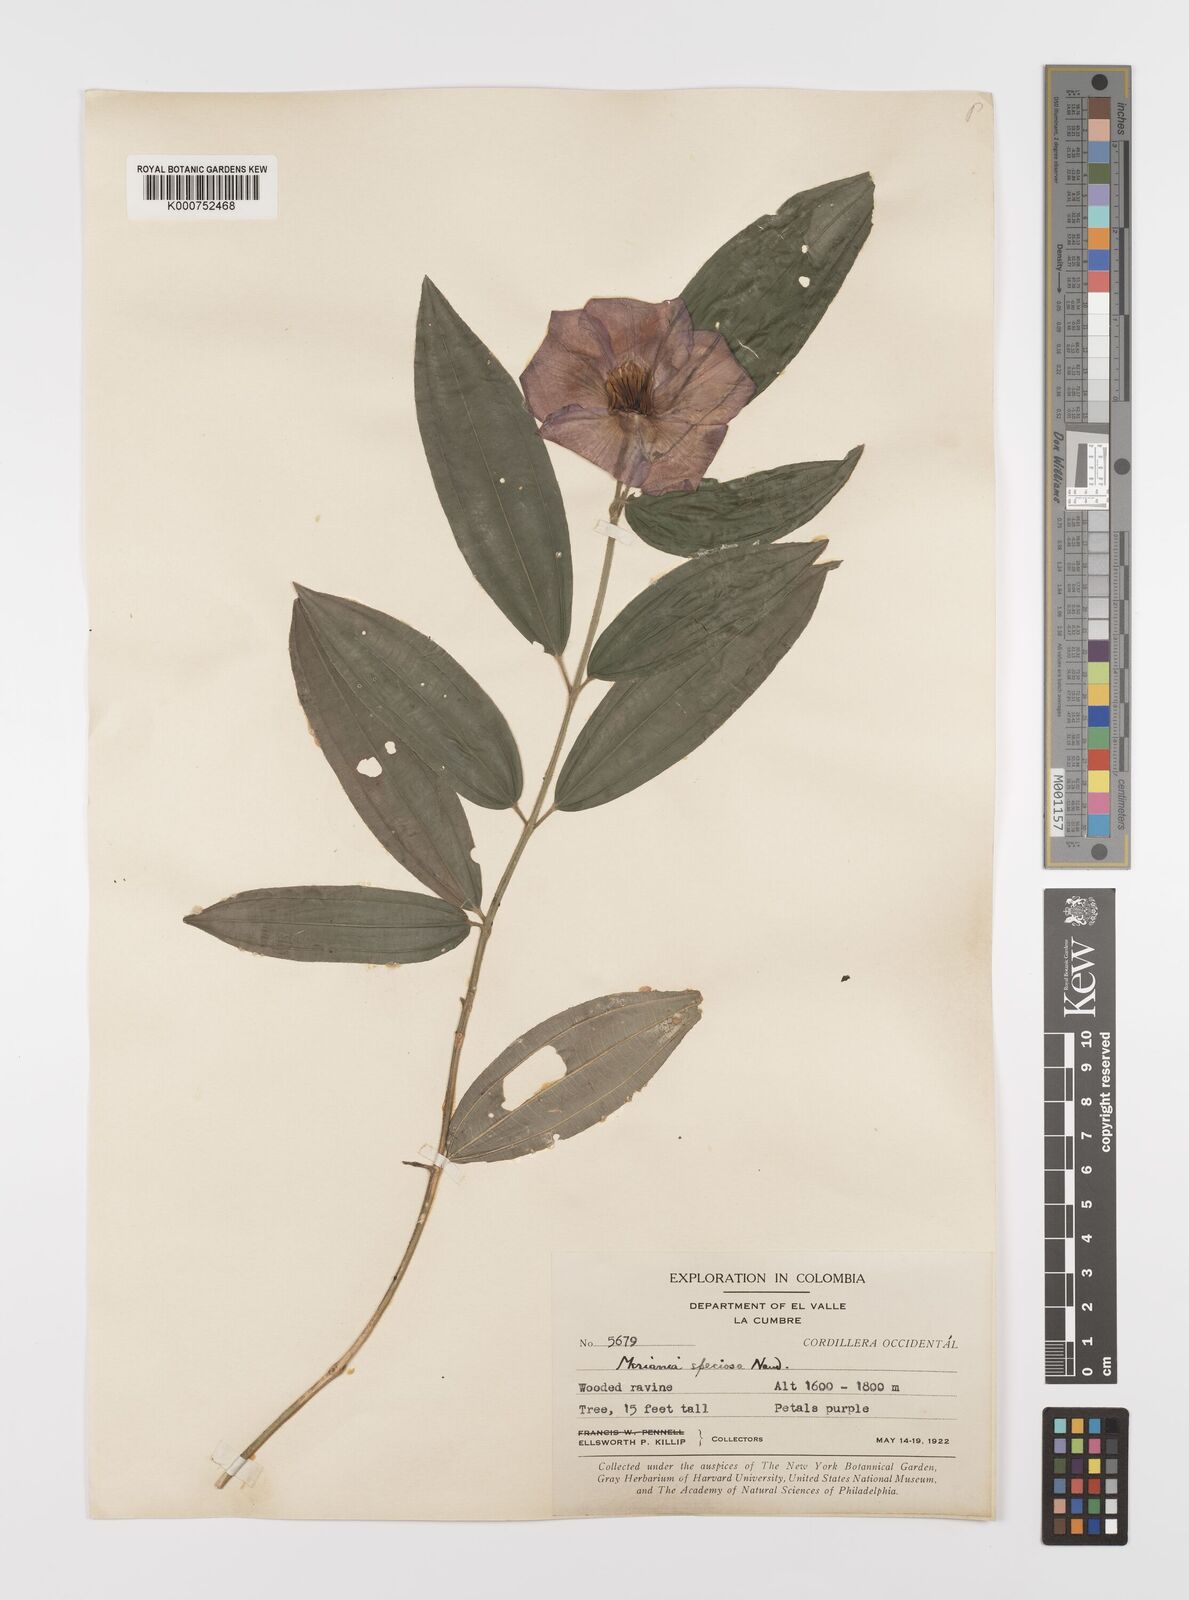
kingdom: Plantae
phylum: Tracheophyta
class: Magnoliopsida
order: Myrtales
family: Melastomataceae
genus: Meriania
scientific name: Meriania speciosa
